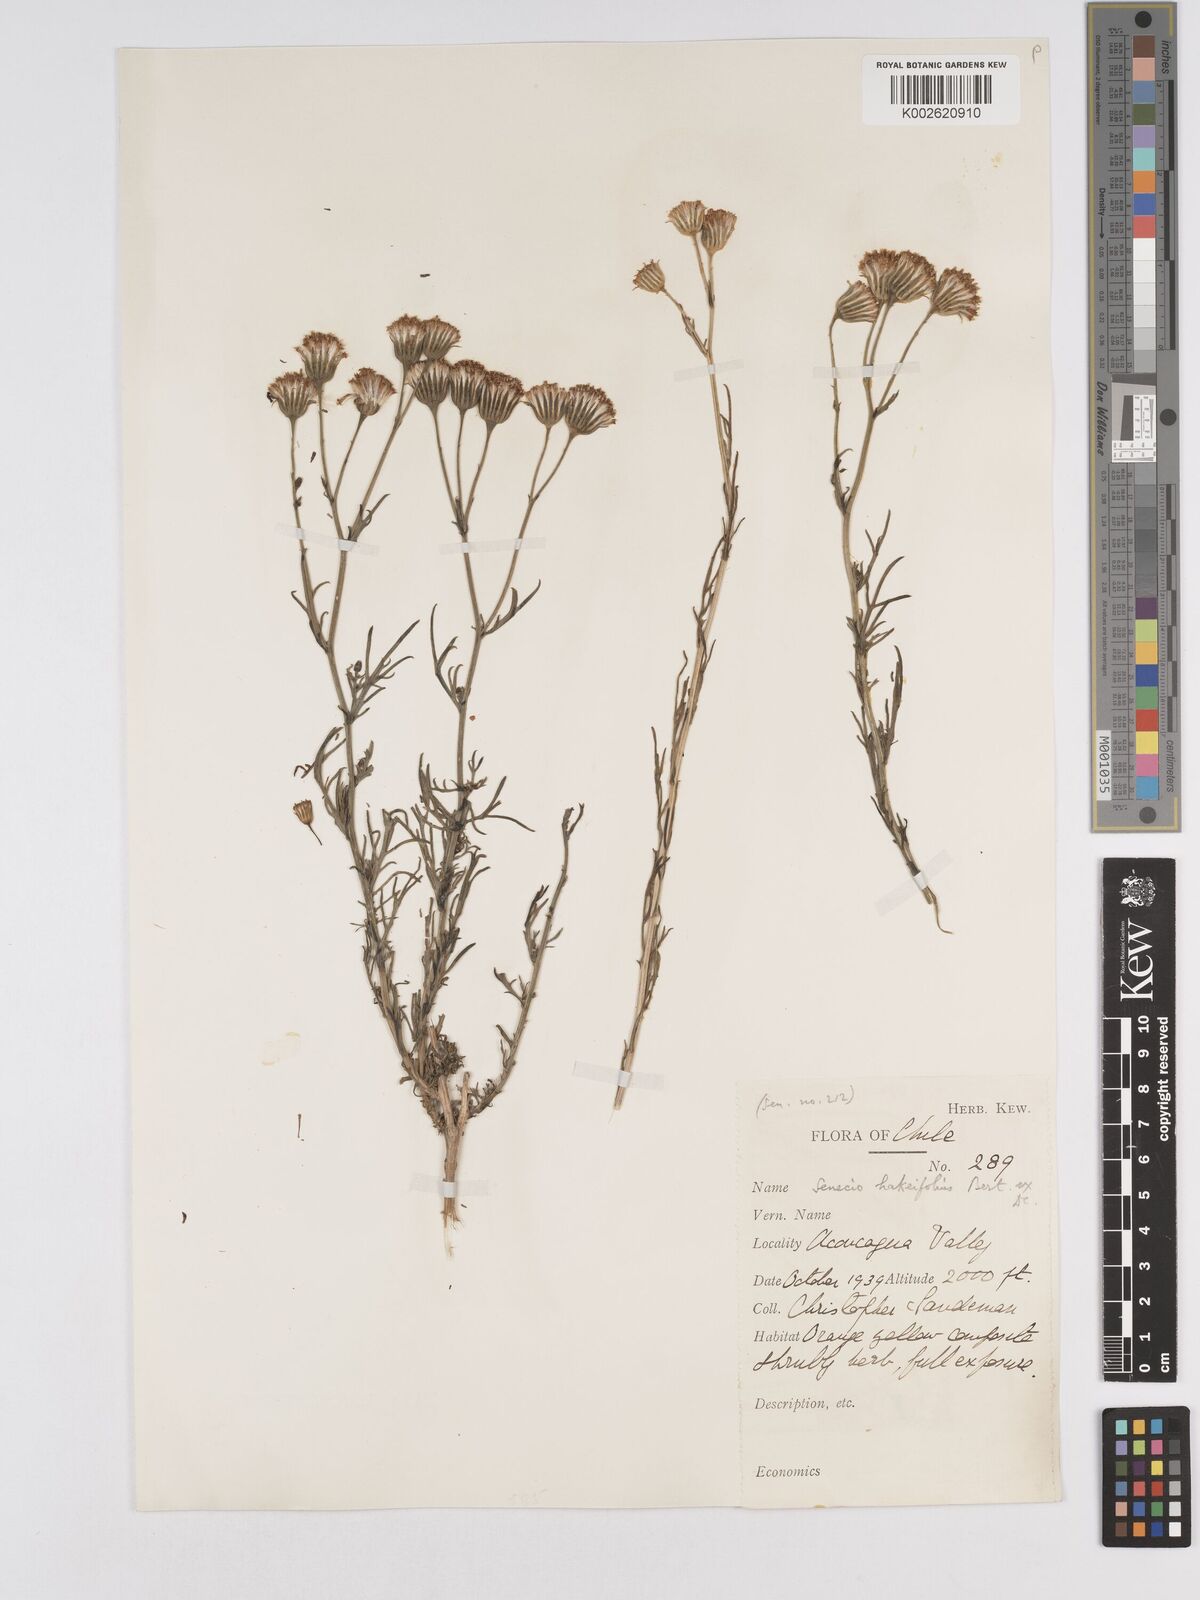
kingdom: Plantae
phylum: Tracheophyta
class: Magnoliopsida
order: Asterales
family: Asteraceae
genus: Senecio
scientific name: Senecio glaber
